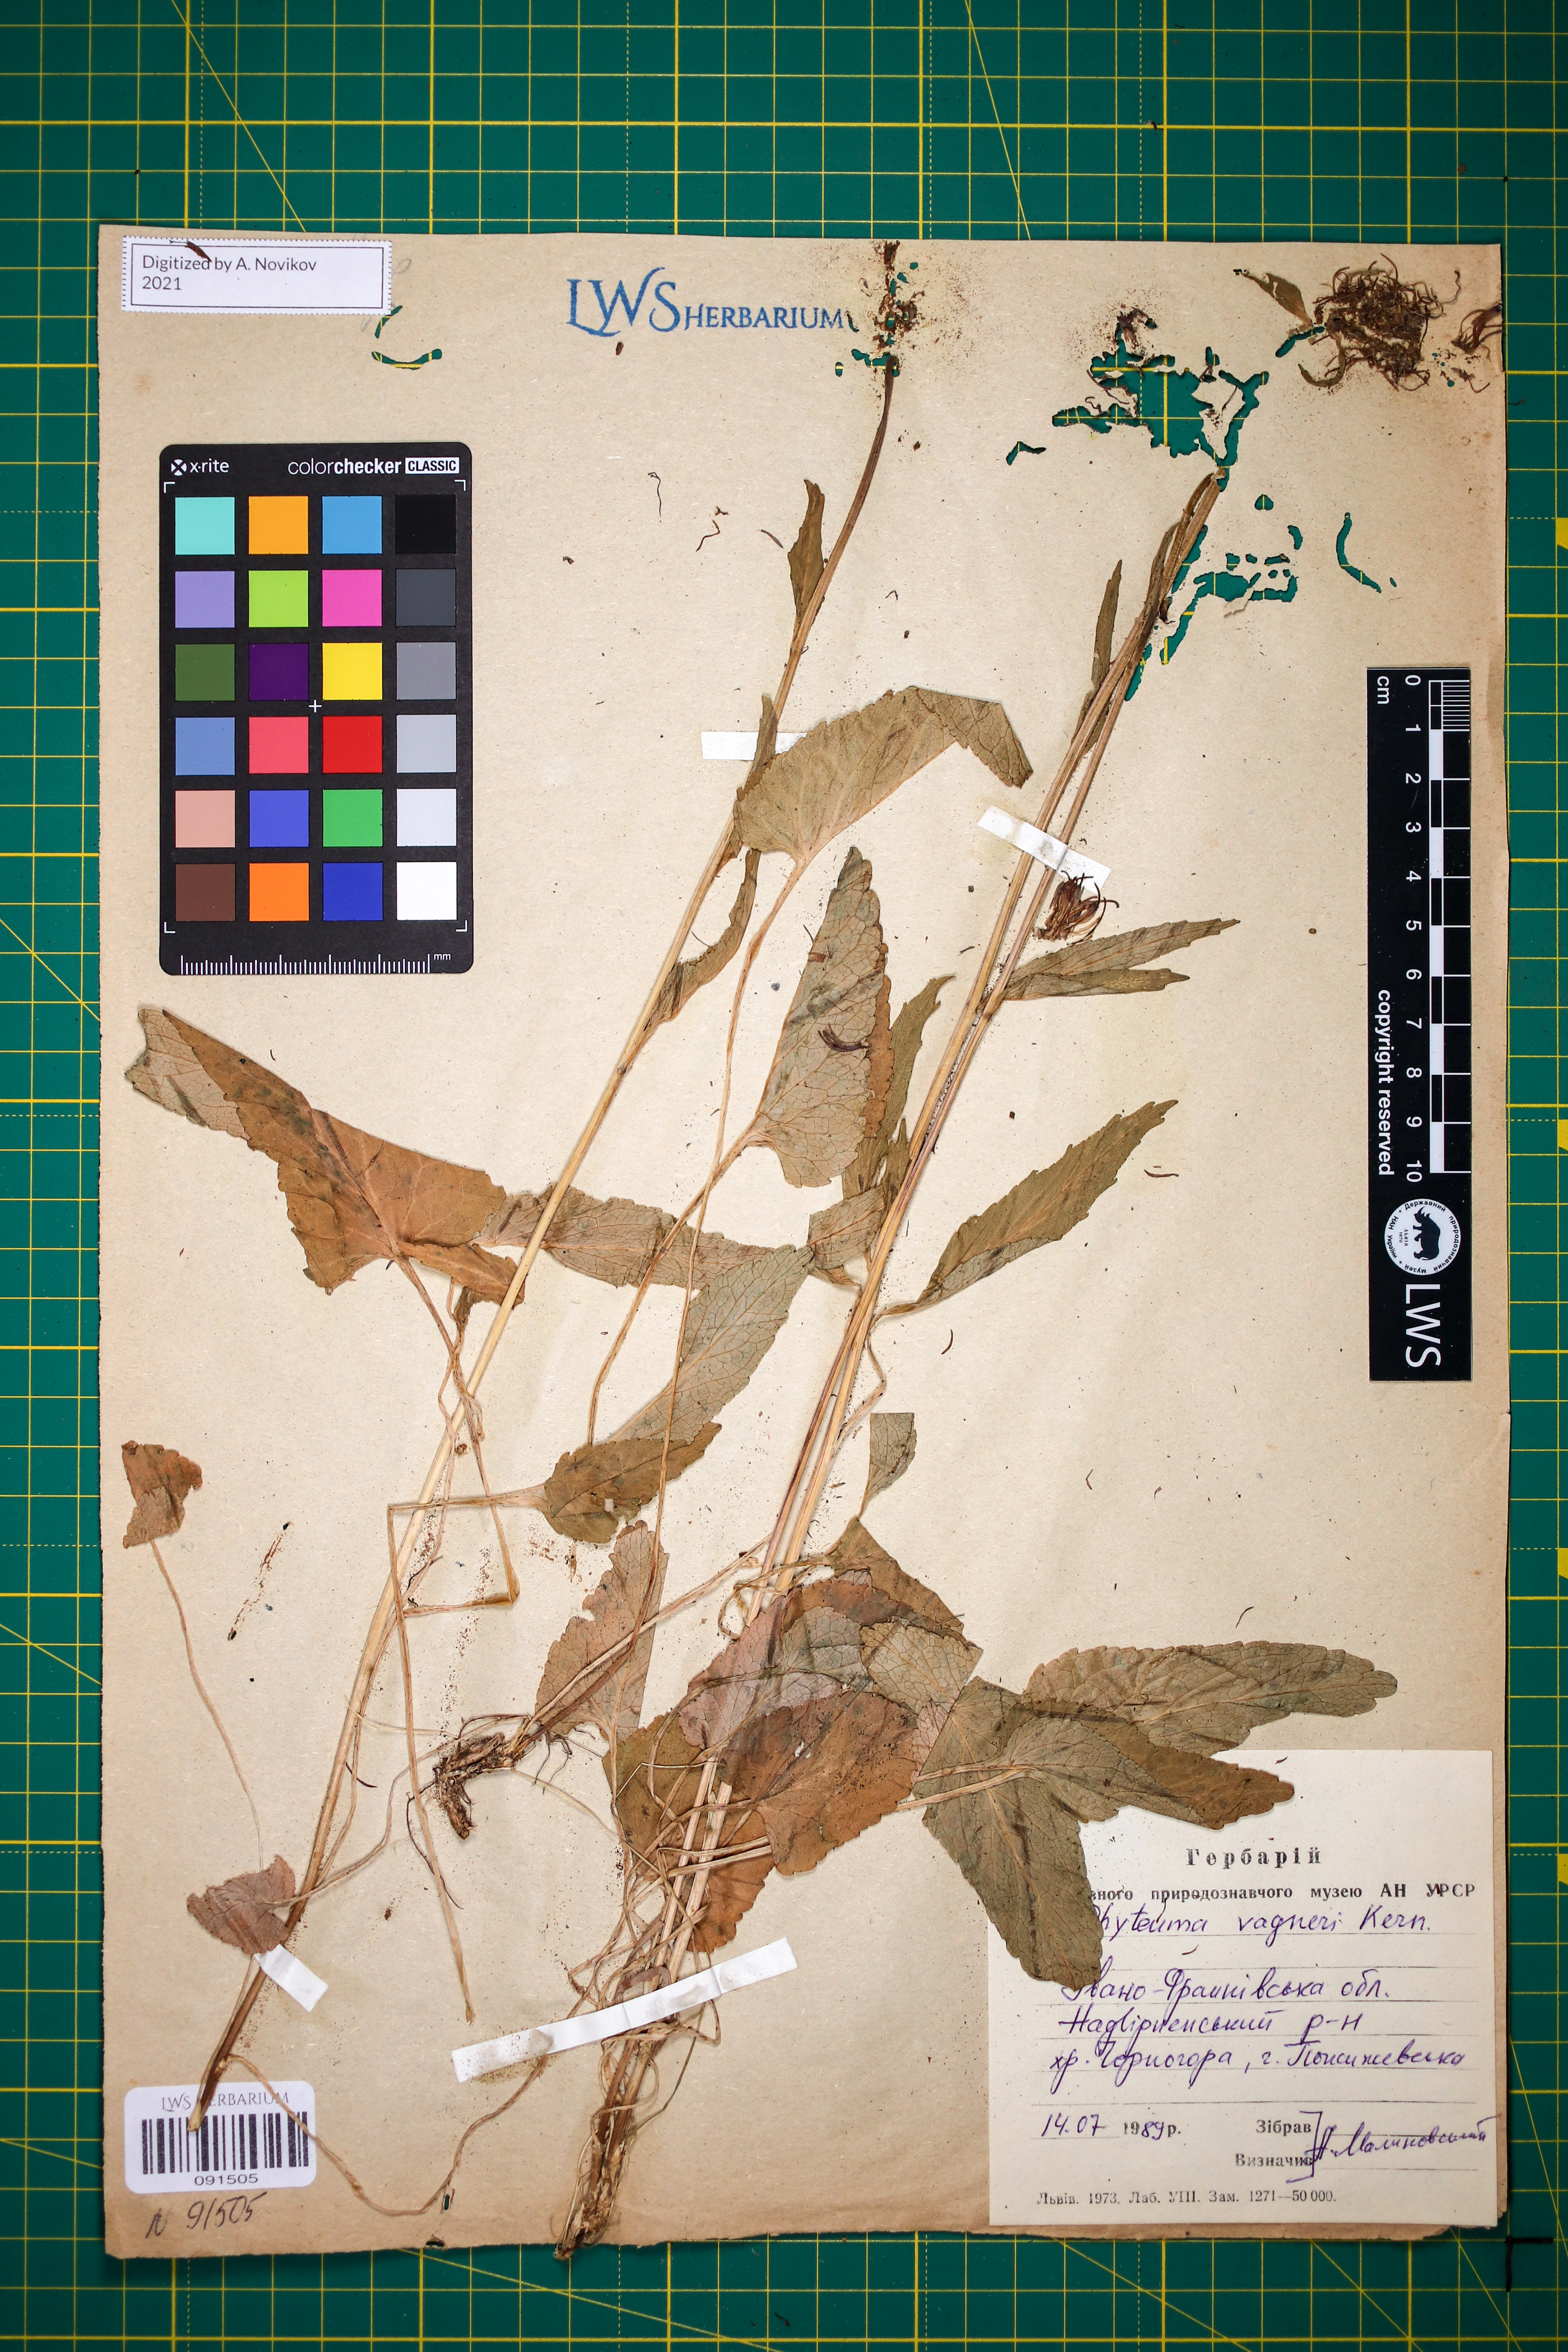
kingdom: Plantae
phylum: Tracheophyta
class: Magnoliopsida
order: Asterales
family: Campanulaceae
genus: Phyteuma
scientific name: Phyteuma vagneri
